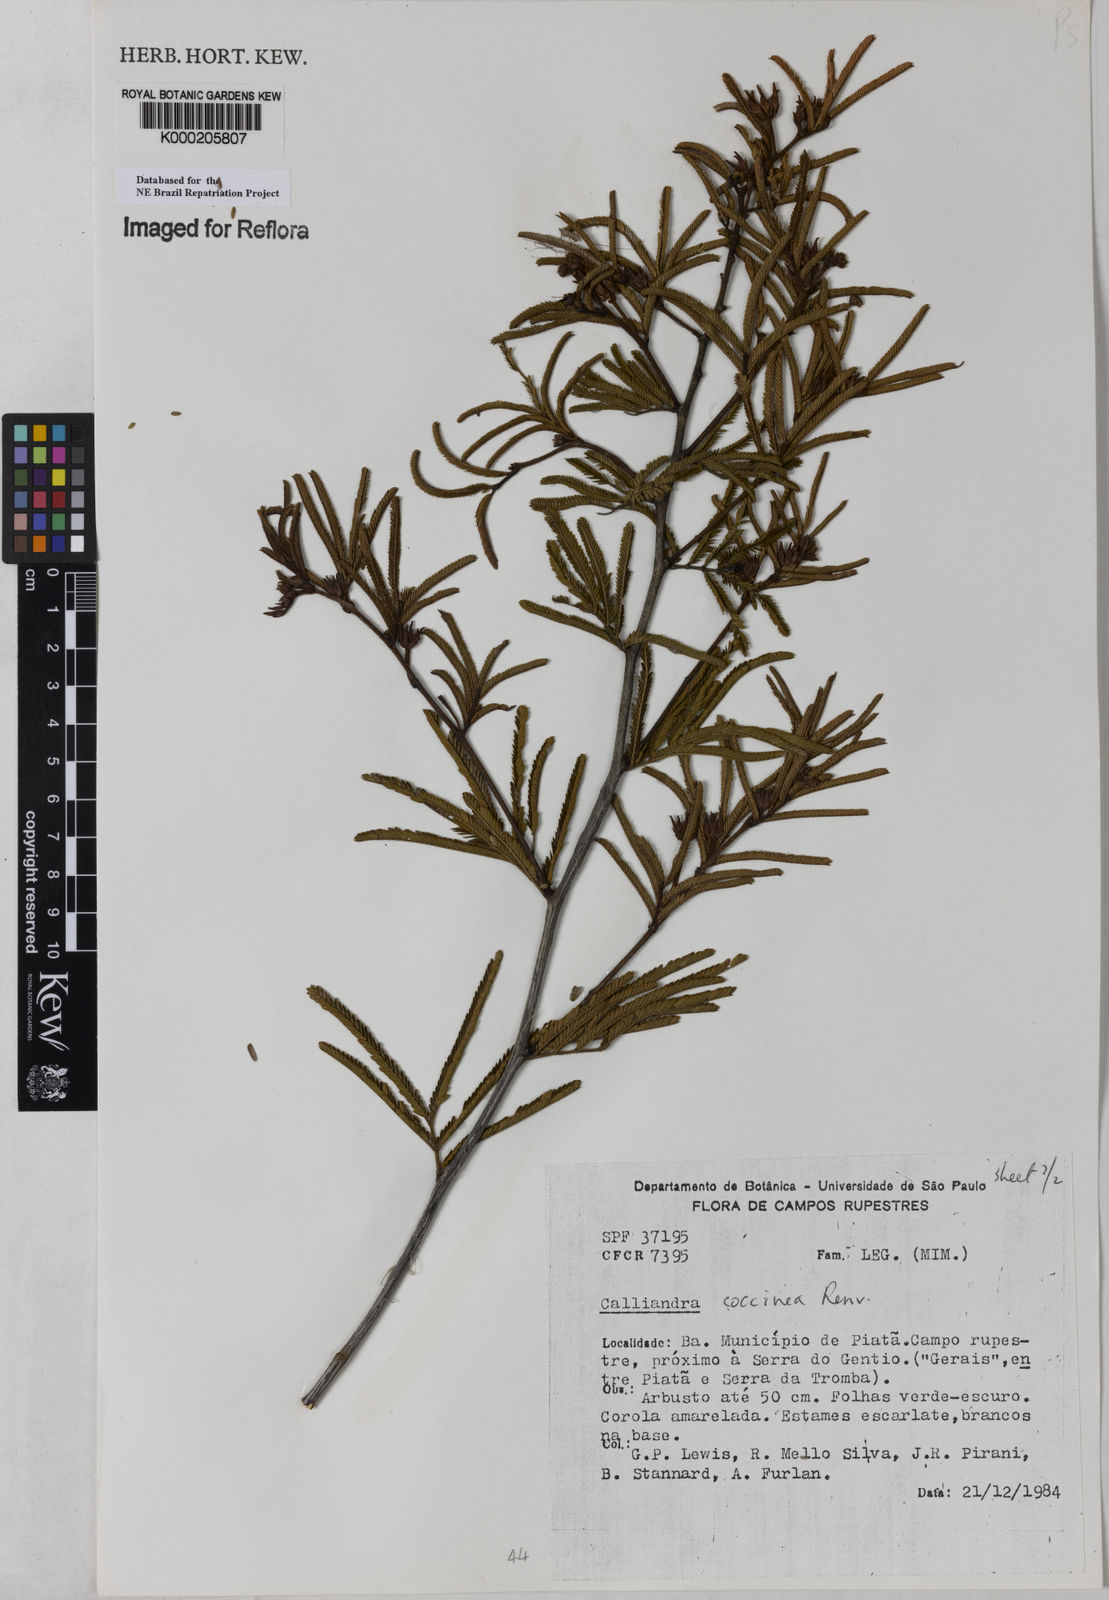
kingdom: Plantae
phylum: Tracheophyta
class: Magnoliopsida
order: Fabales
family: Fabaceae
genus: Calliandra
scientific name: Calliandra coccinea
